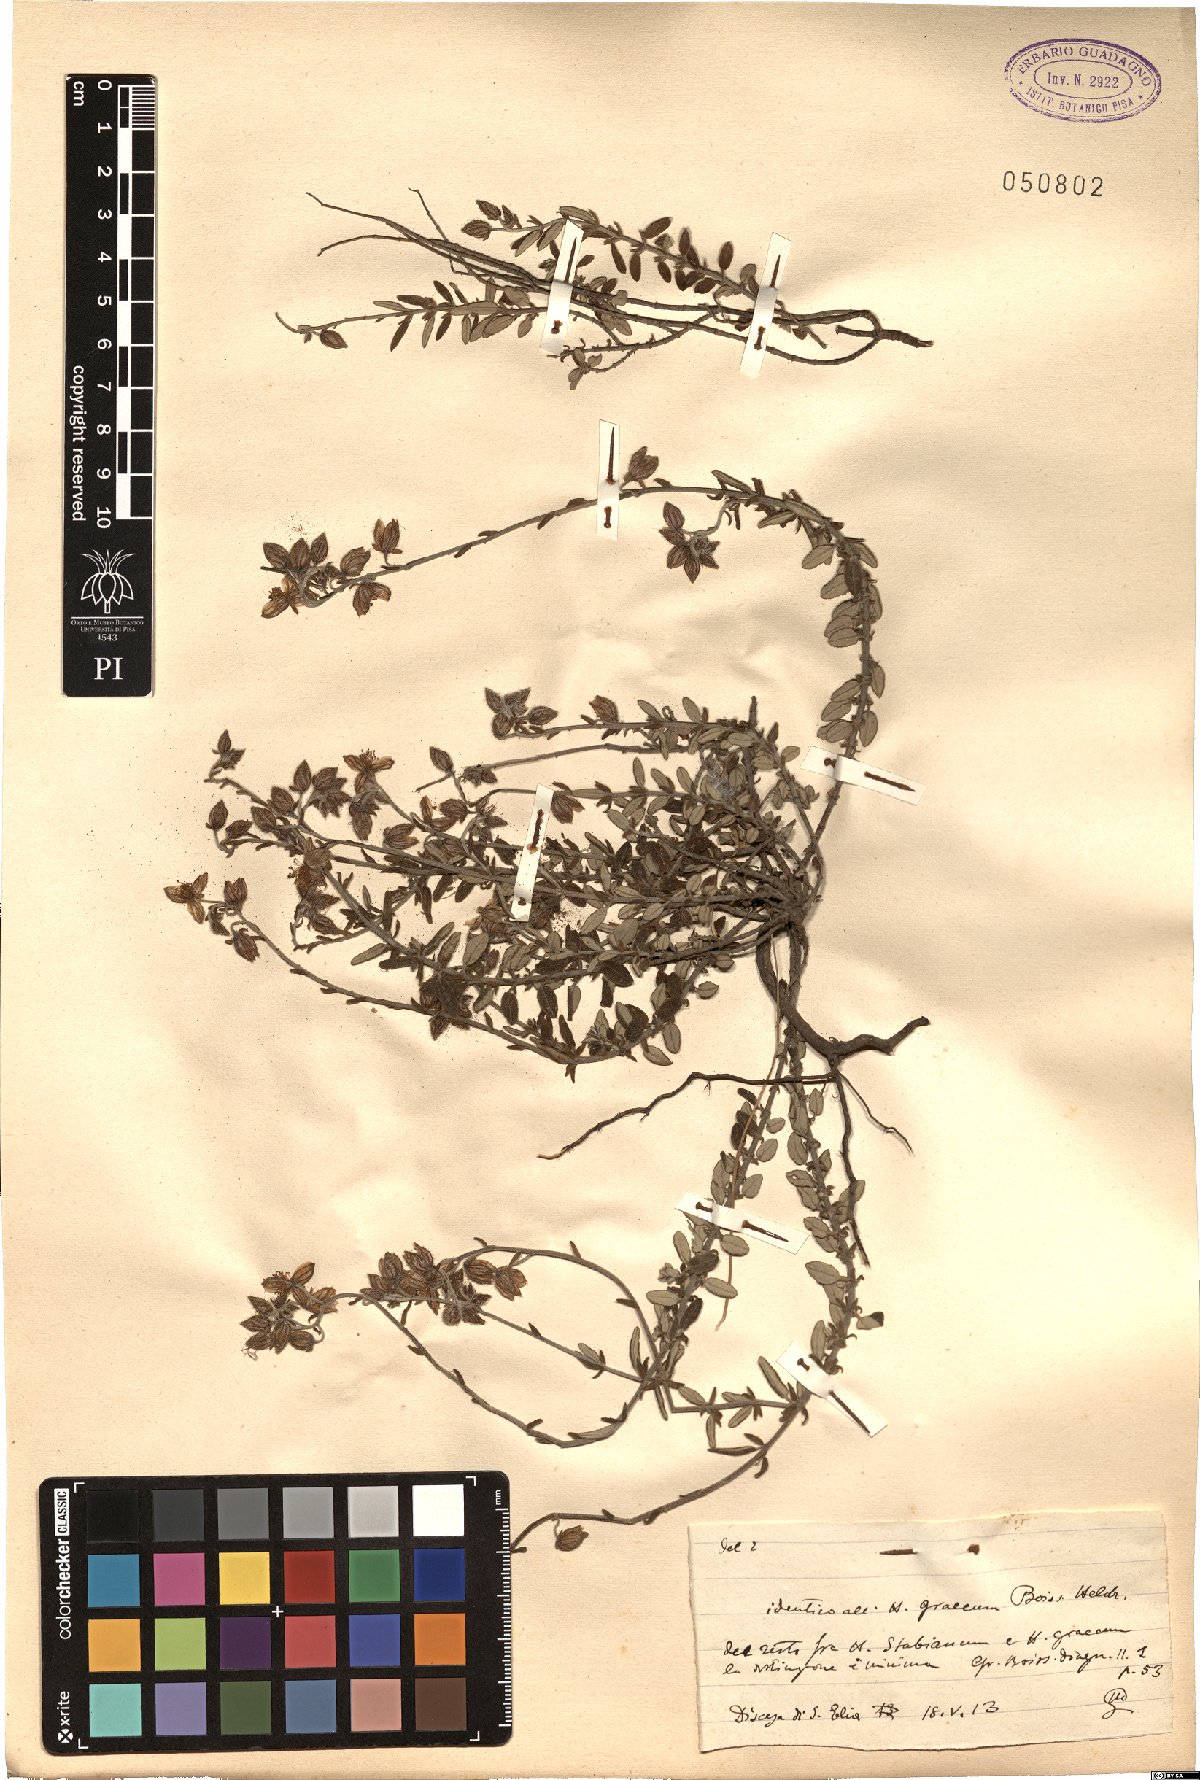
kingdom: Plantae
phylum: Tracheophyta
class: Magnoliopsida
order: Malvales
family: Cistaceae
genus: Helianthemum
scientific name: Helianthemum nummularium
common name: Common rock-rose
